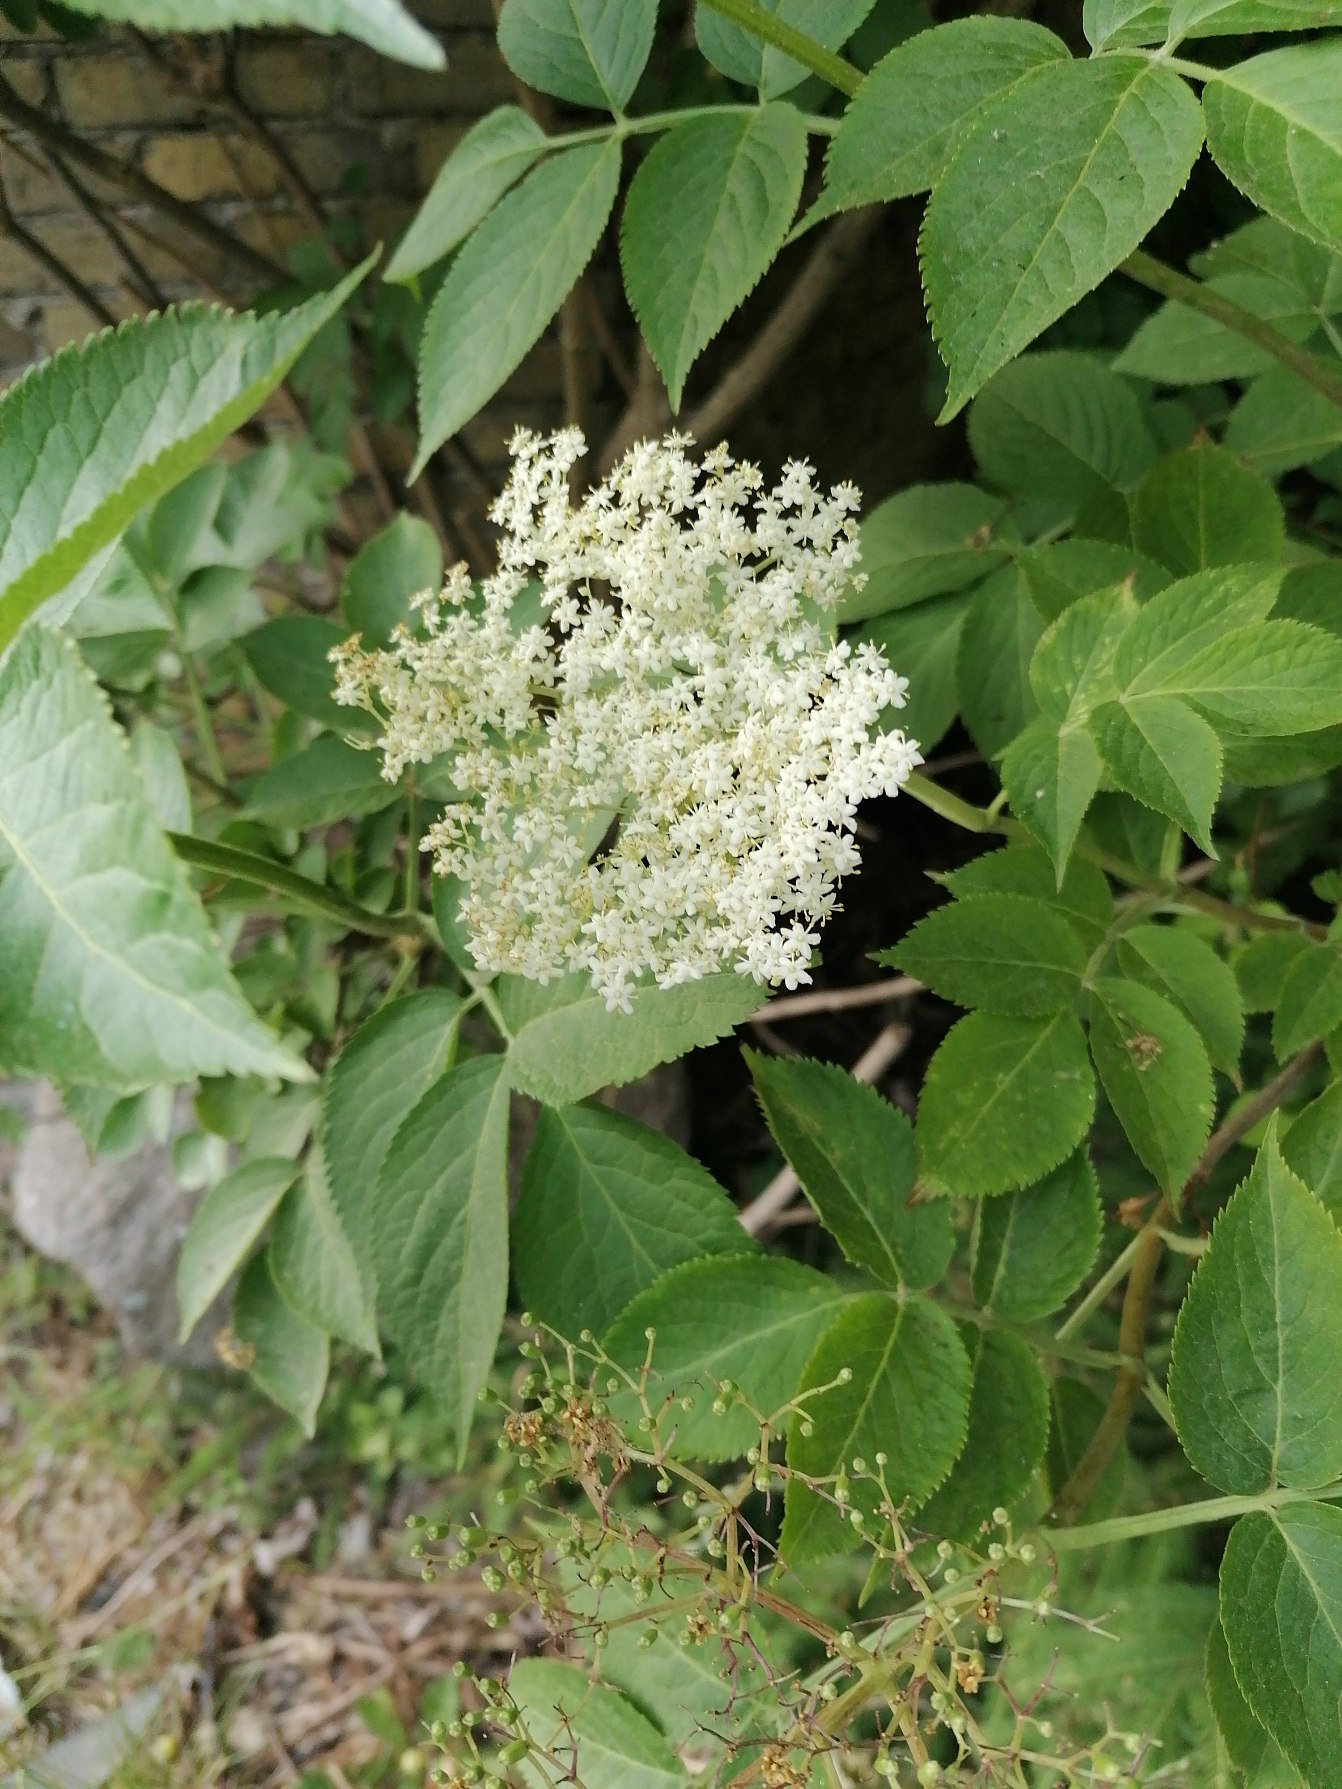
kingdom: Plantae
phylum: Tracheophyta
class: Magnoliopsida
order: Dipsacales
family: Viburnaceae
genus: Sambucus
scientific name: Sambucus nigra
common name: Almindelig hyld
